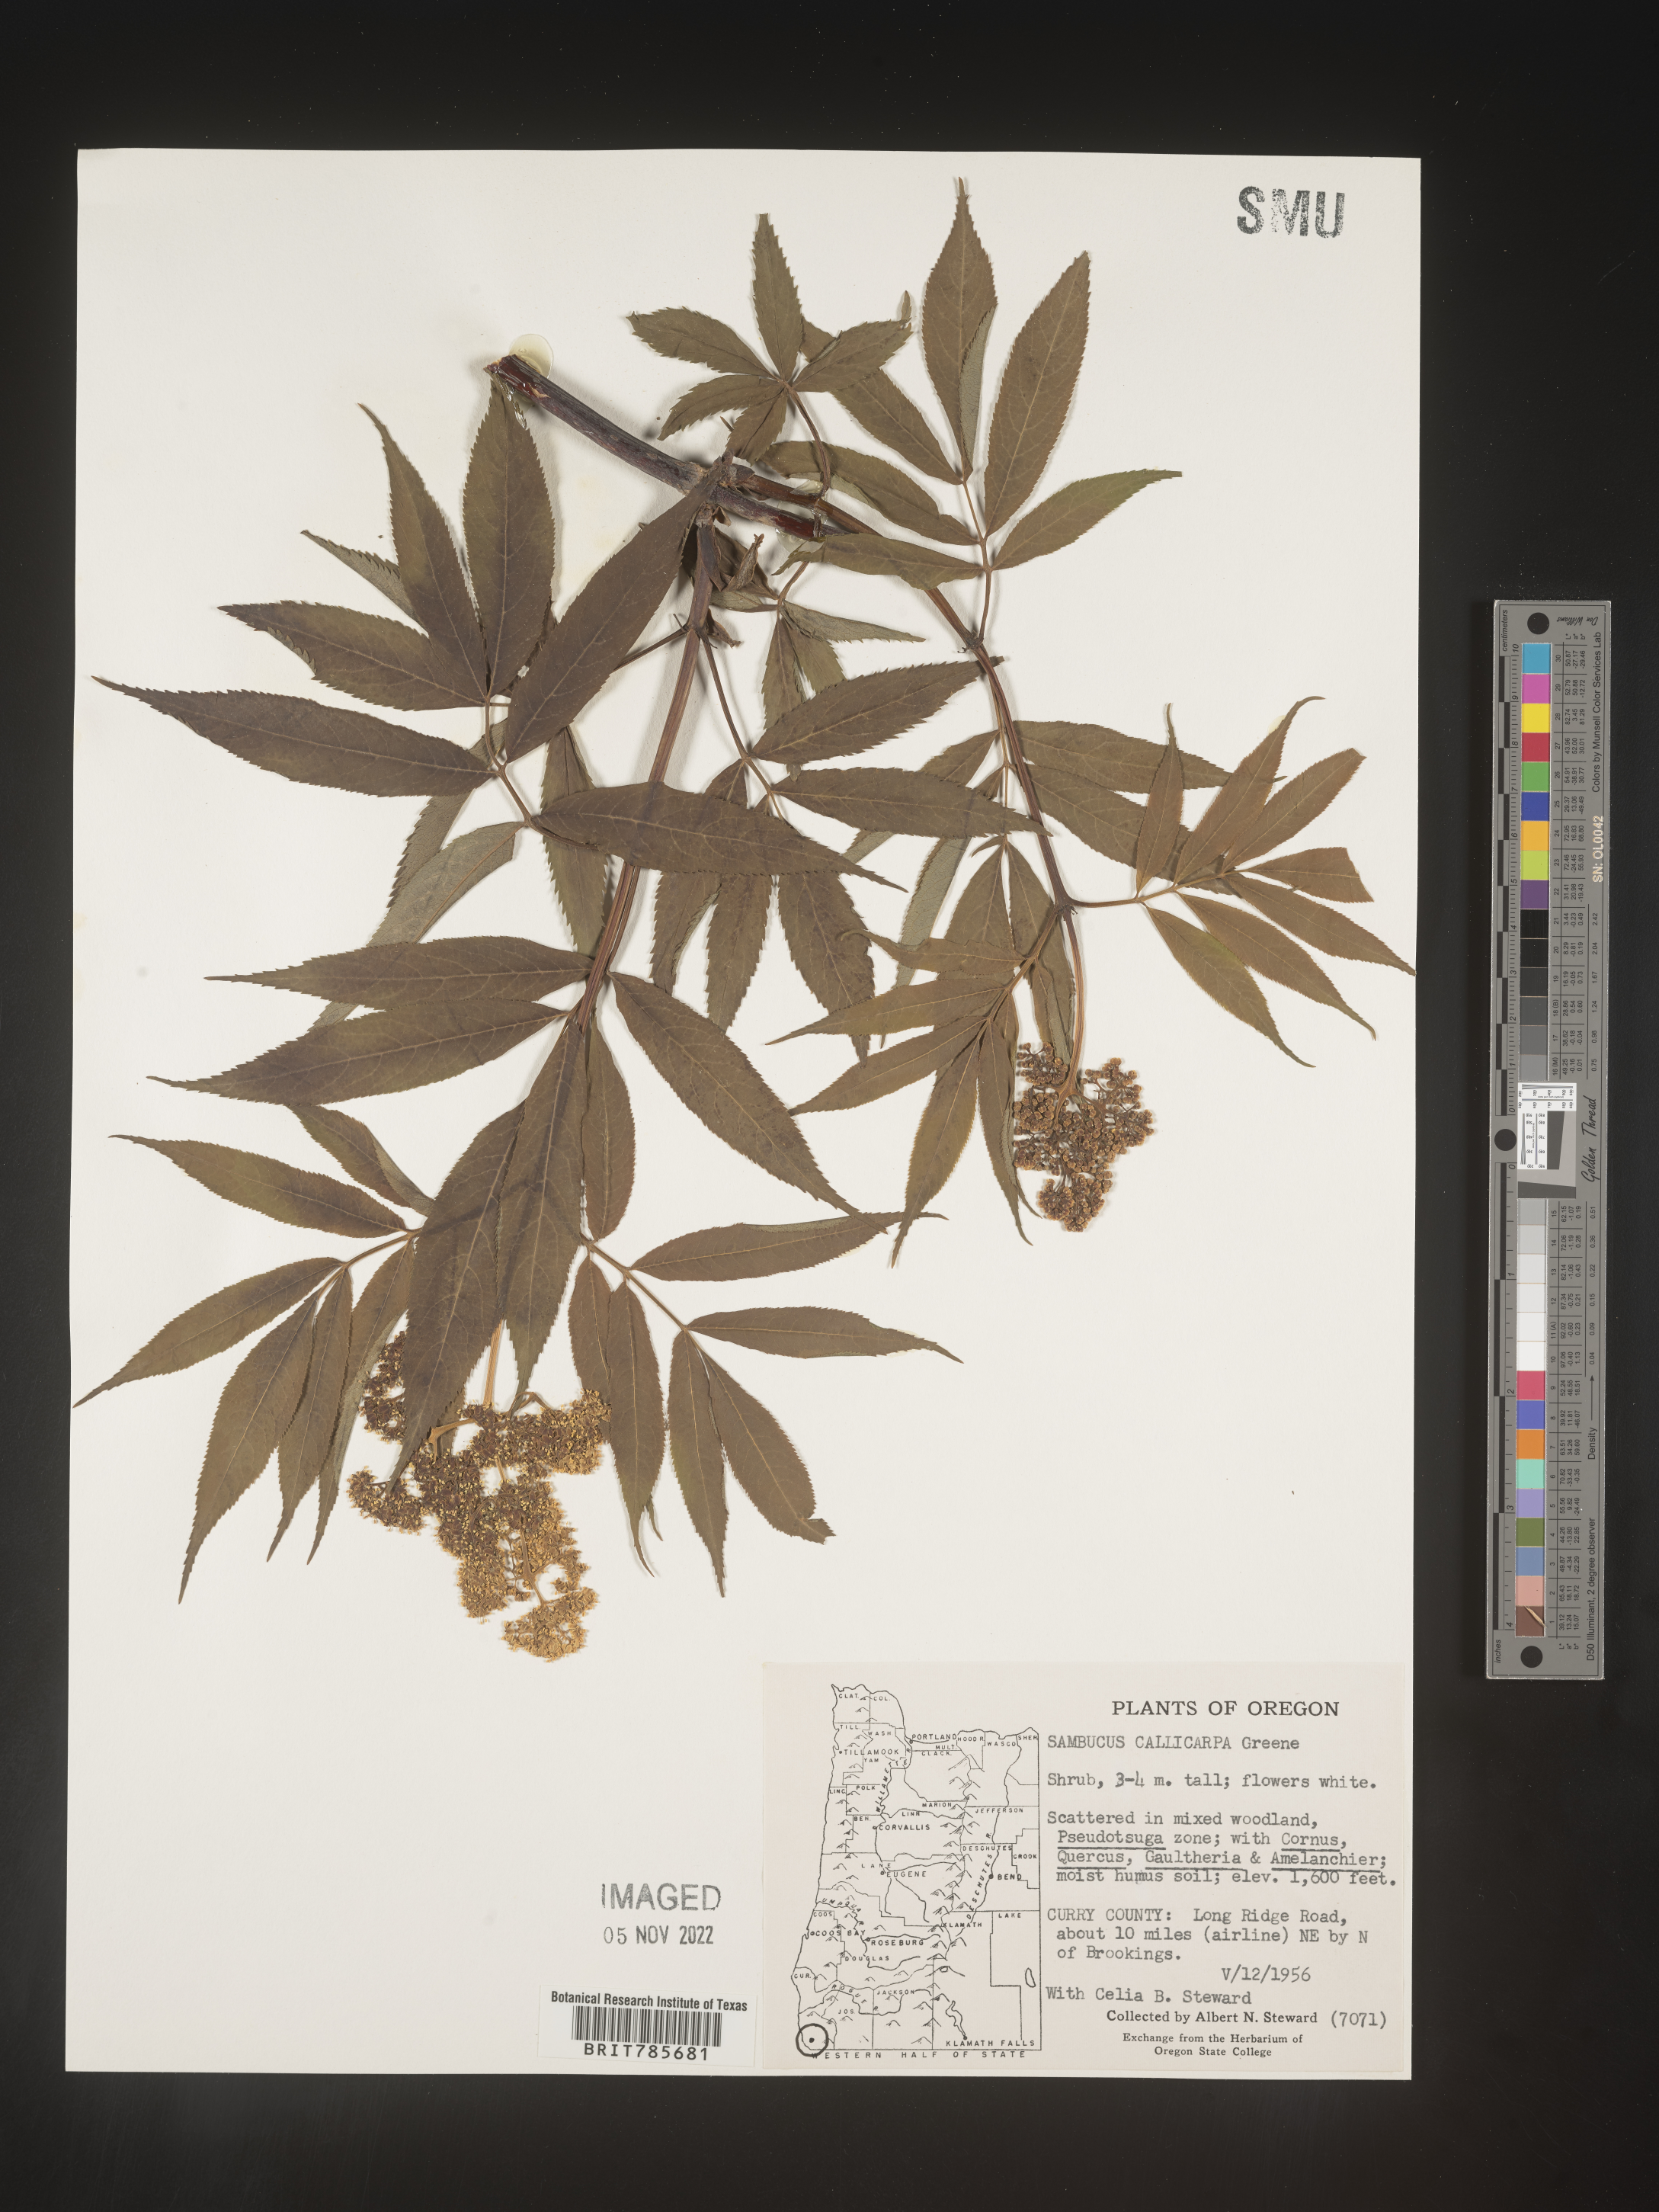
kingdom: Plantae
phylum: Tracheophyta
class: Magnoliopsida
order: Dipsacales
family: Viburnaceae
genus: Sambucus
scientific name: Sambucus racemosa
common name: Red-berried elder
